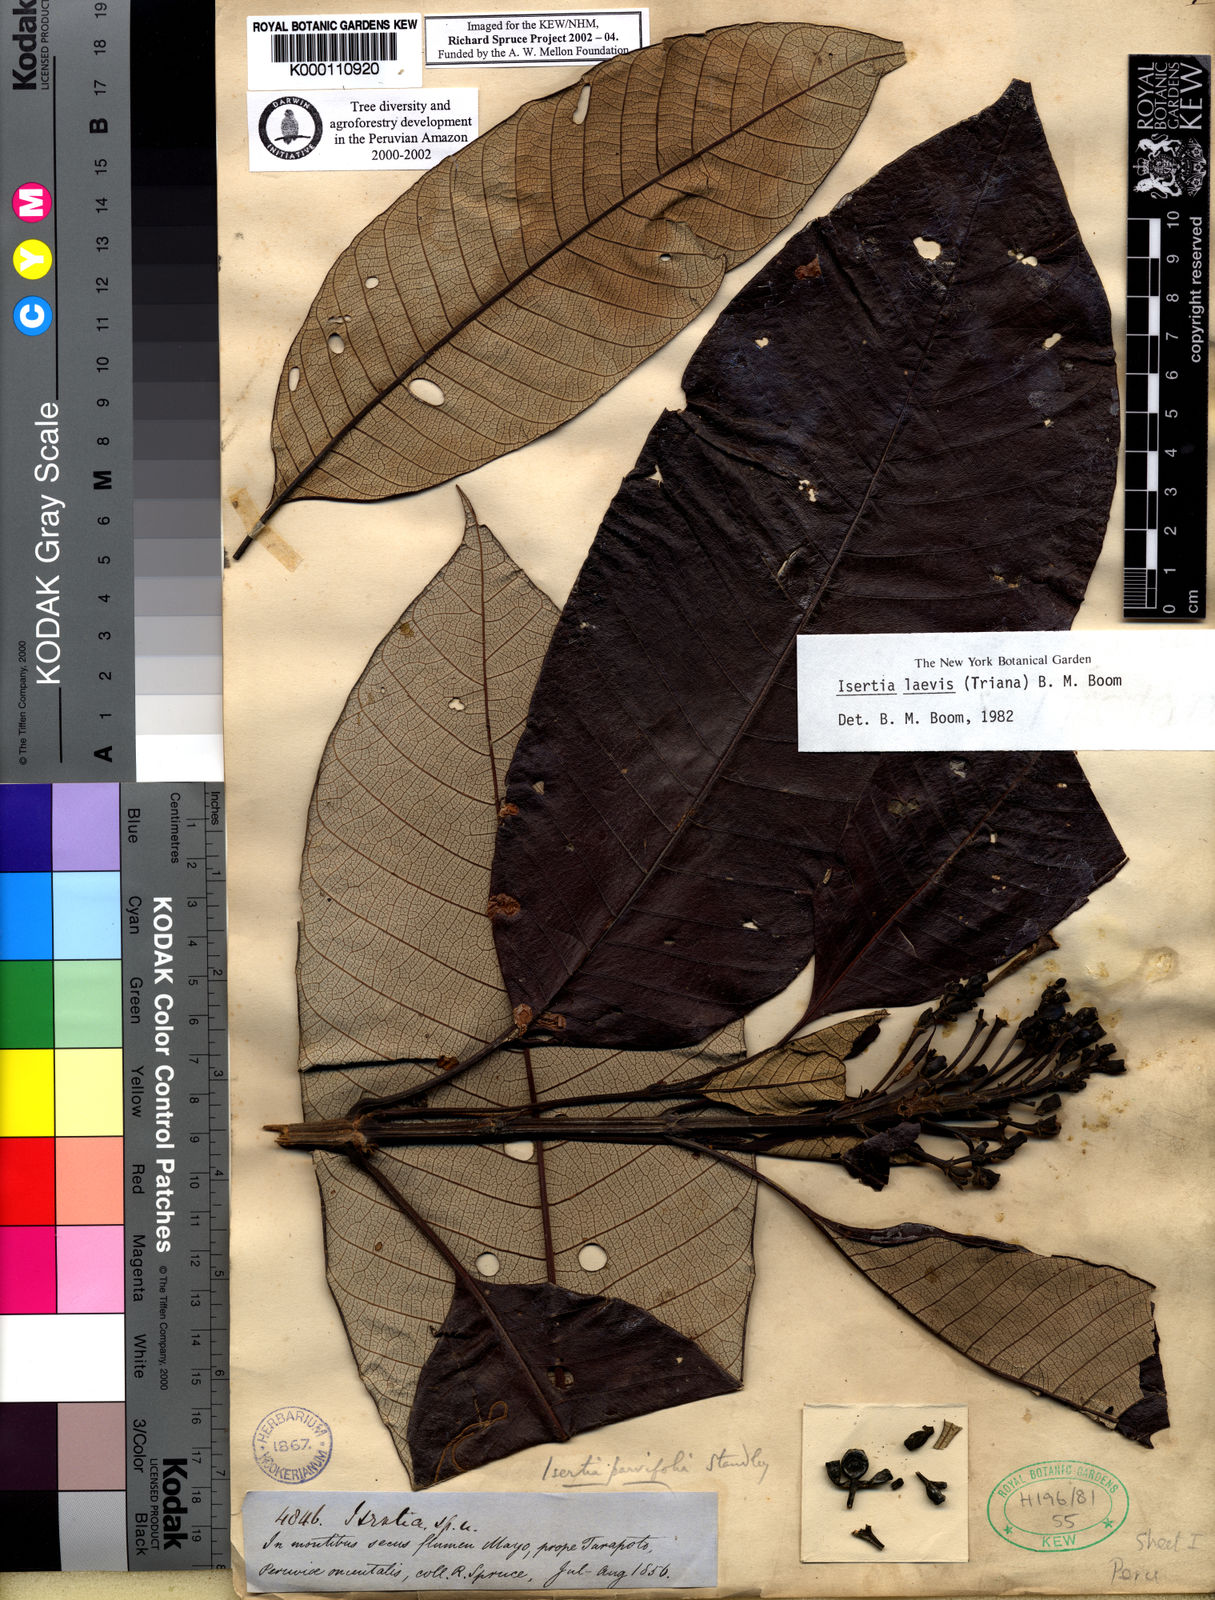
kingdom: Plantae
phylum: Tracheophyta
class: Magnoliopsida
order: Gentianales
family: Rubiaceae
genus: Isertia
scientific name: Isertia laevis
